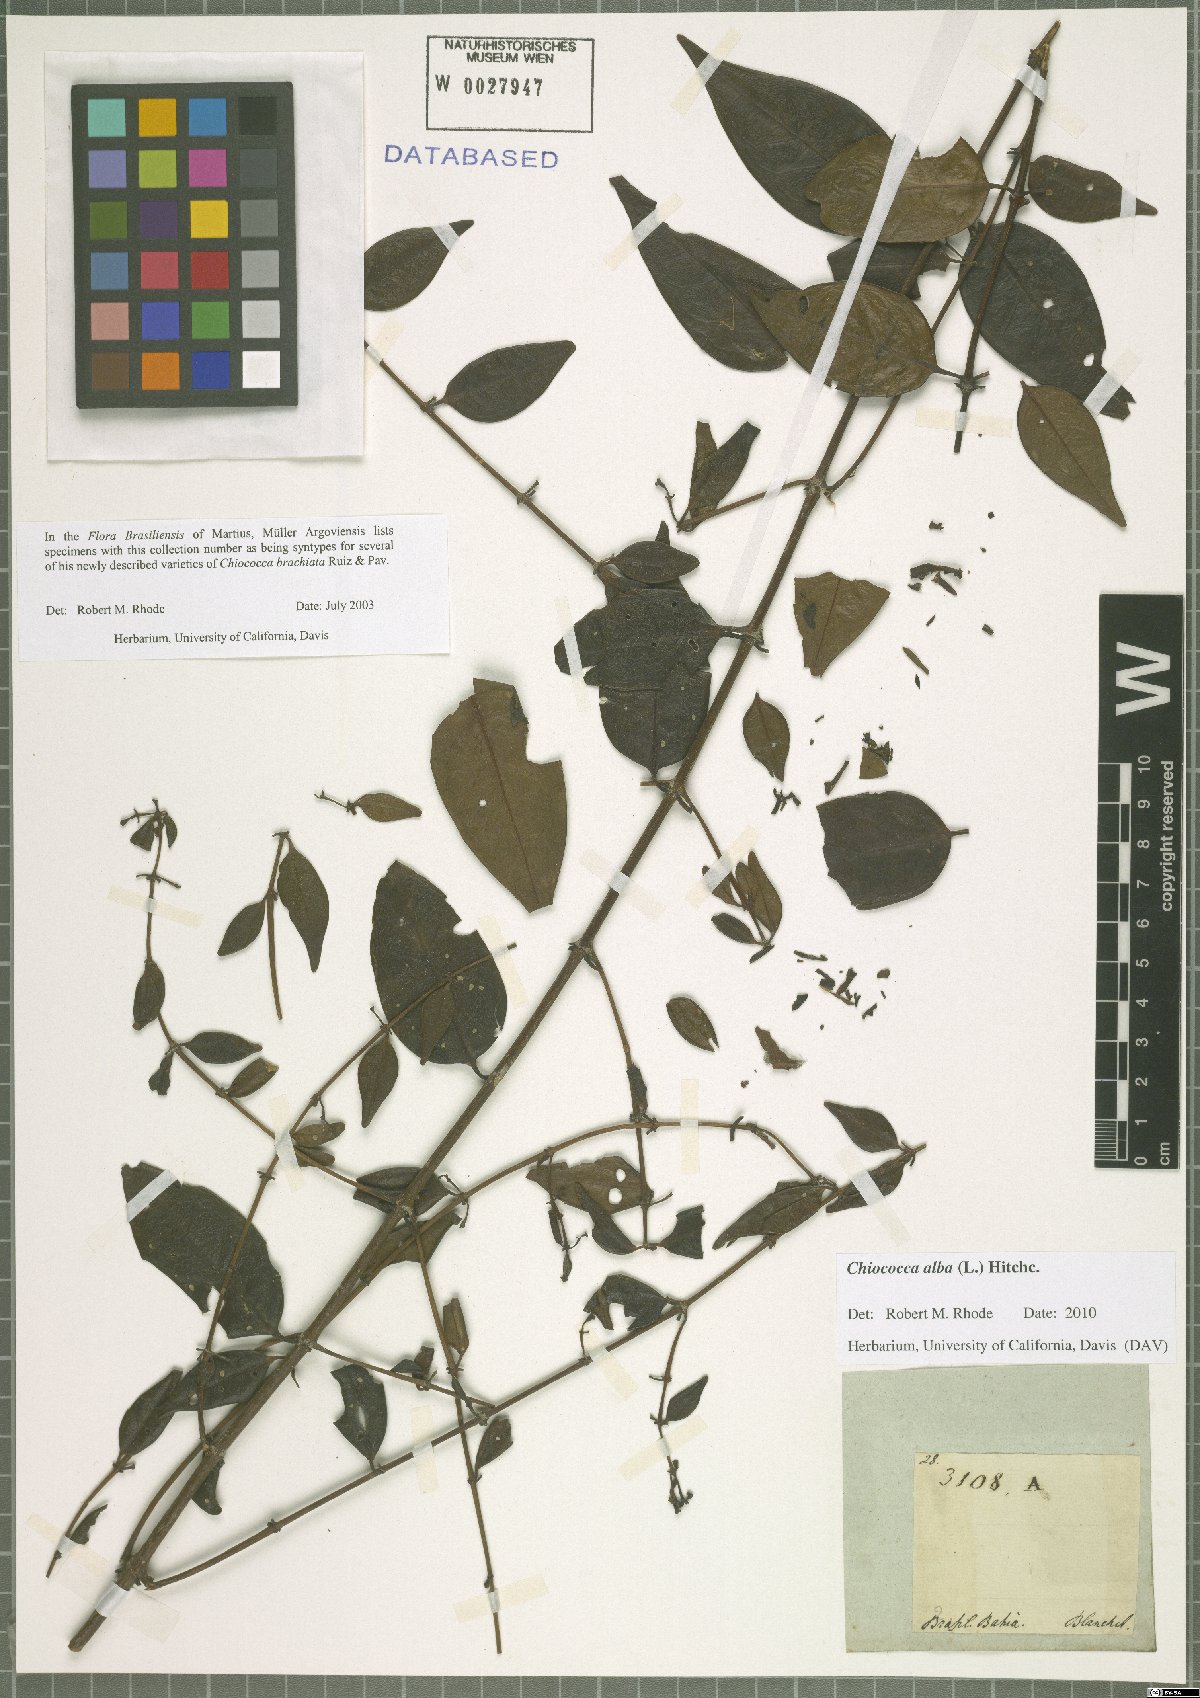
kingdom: Plantae
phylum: Tracheophyta
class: Magnoliopsida
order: Gentianales
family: Rubiaceae
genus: Chiococca
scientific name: Chiococca alba
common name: Snowberry
